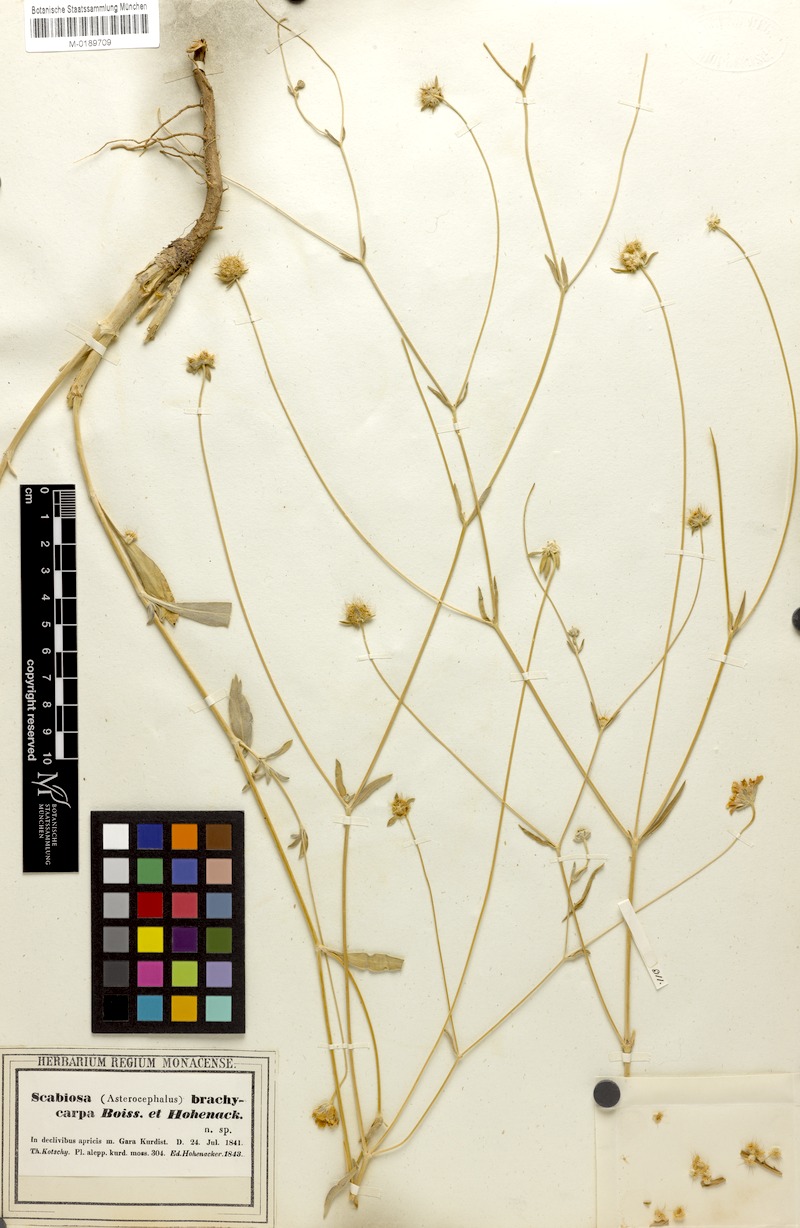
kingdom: Plantae
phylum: Tracheophyta
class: Magnoliopsida
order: Dipsacales
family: Caprifoliaceae
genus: Lomelosia
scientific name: Lomelosia brachycarpa
